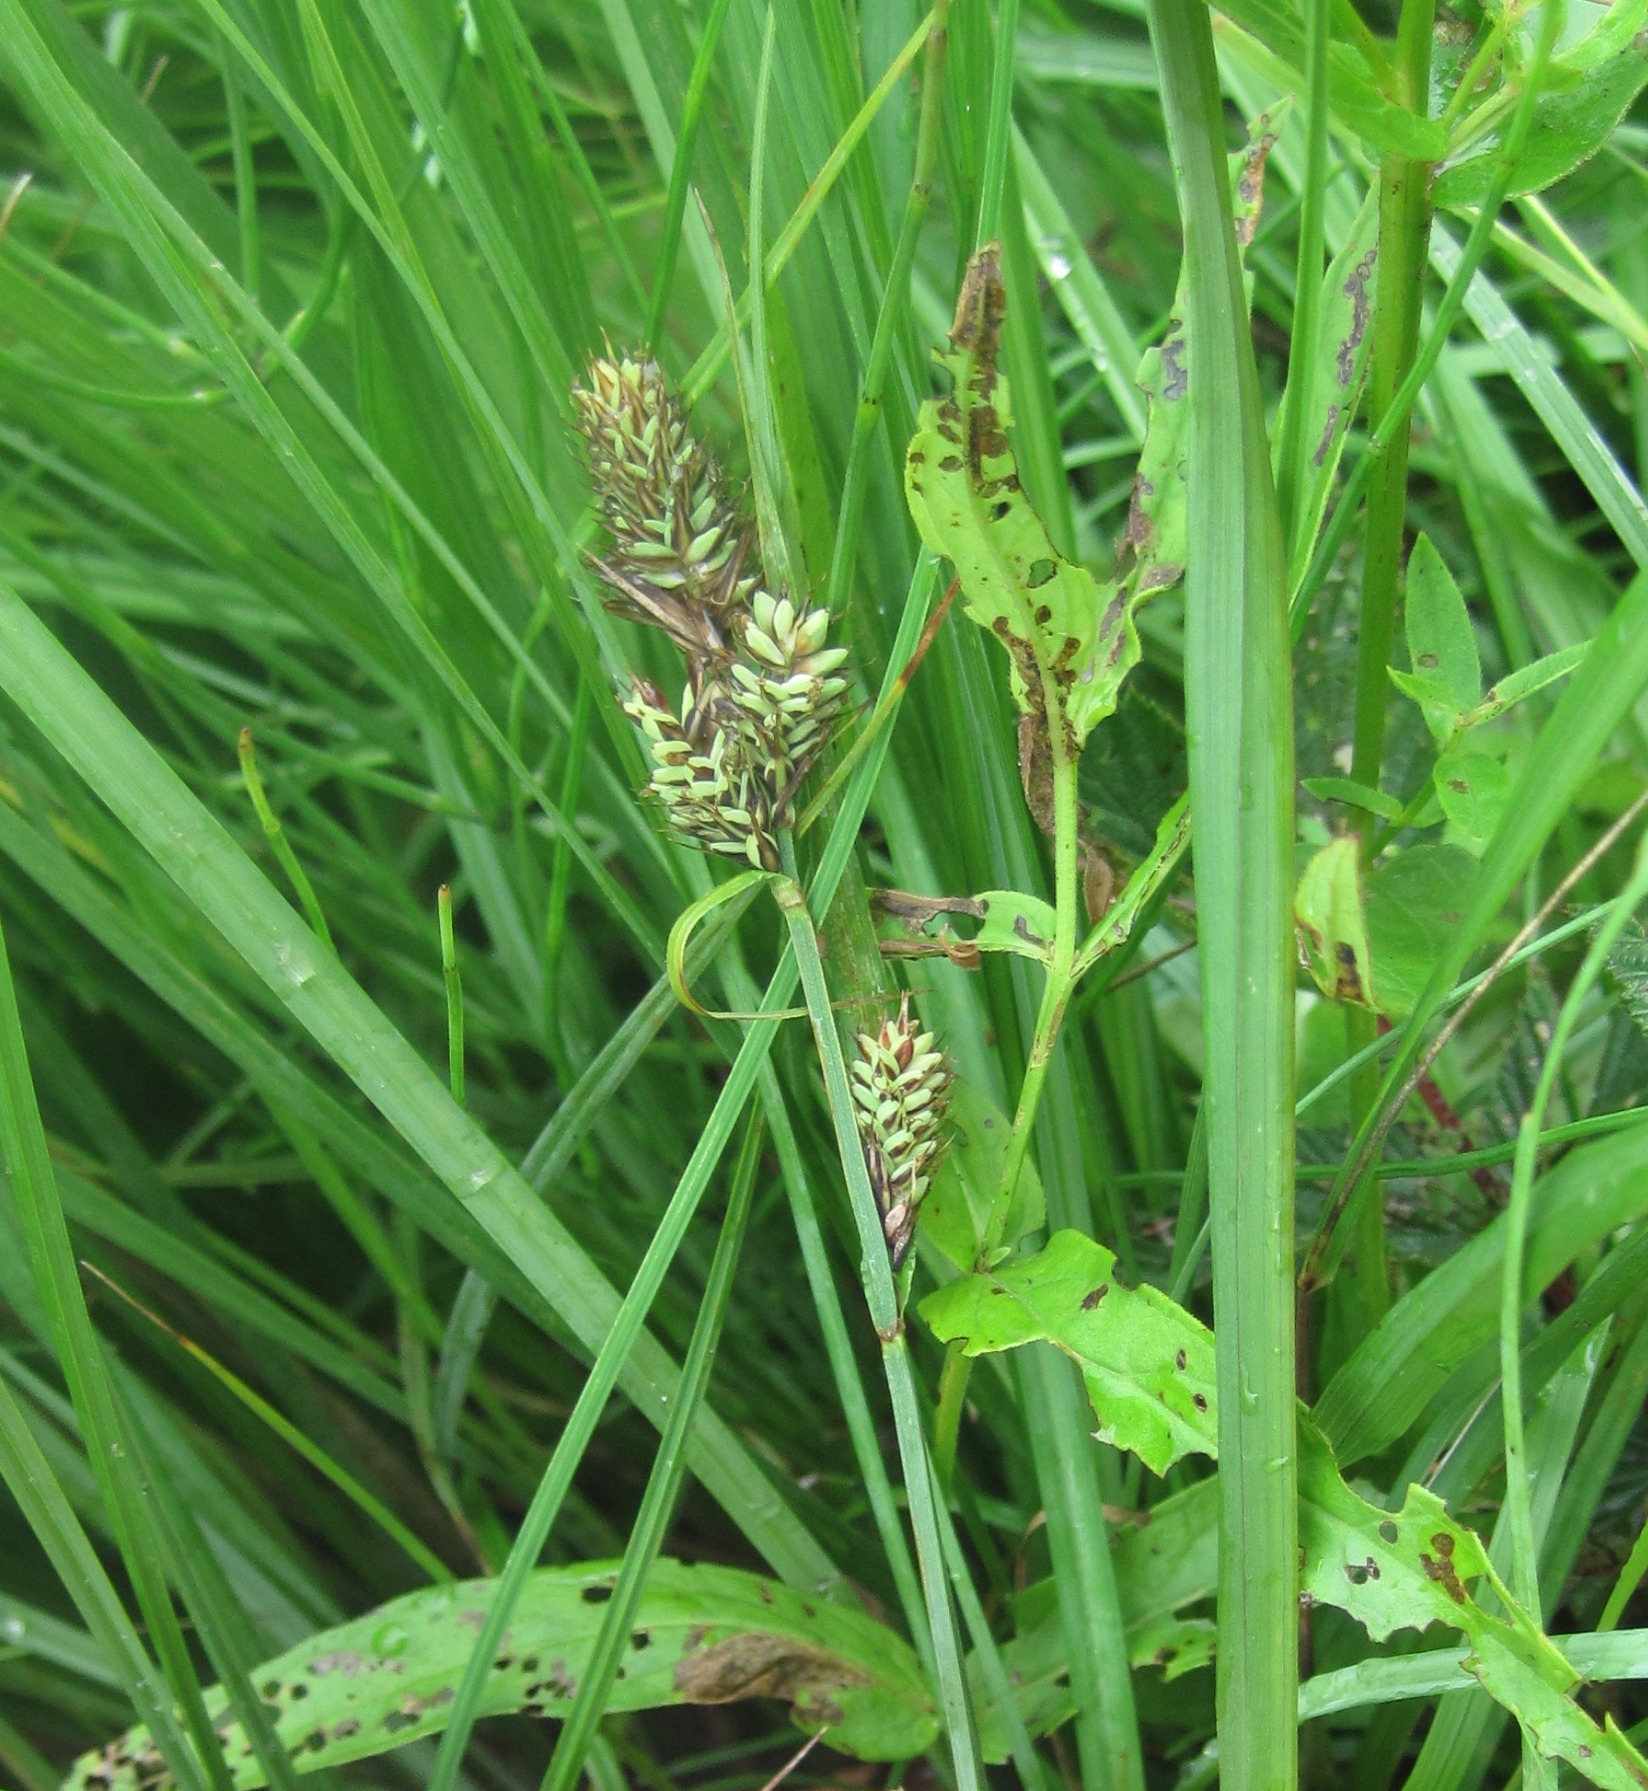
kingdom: Plantae
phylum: Tracheophyta
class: Liliopsida
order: Poales
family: Cyperaceae
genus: Carex
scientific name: Carex buxbaumii
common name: Kølle-star
